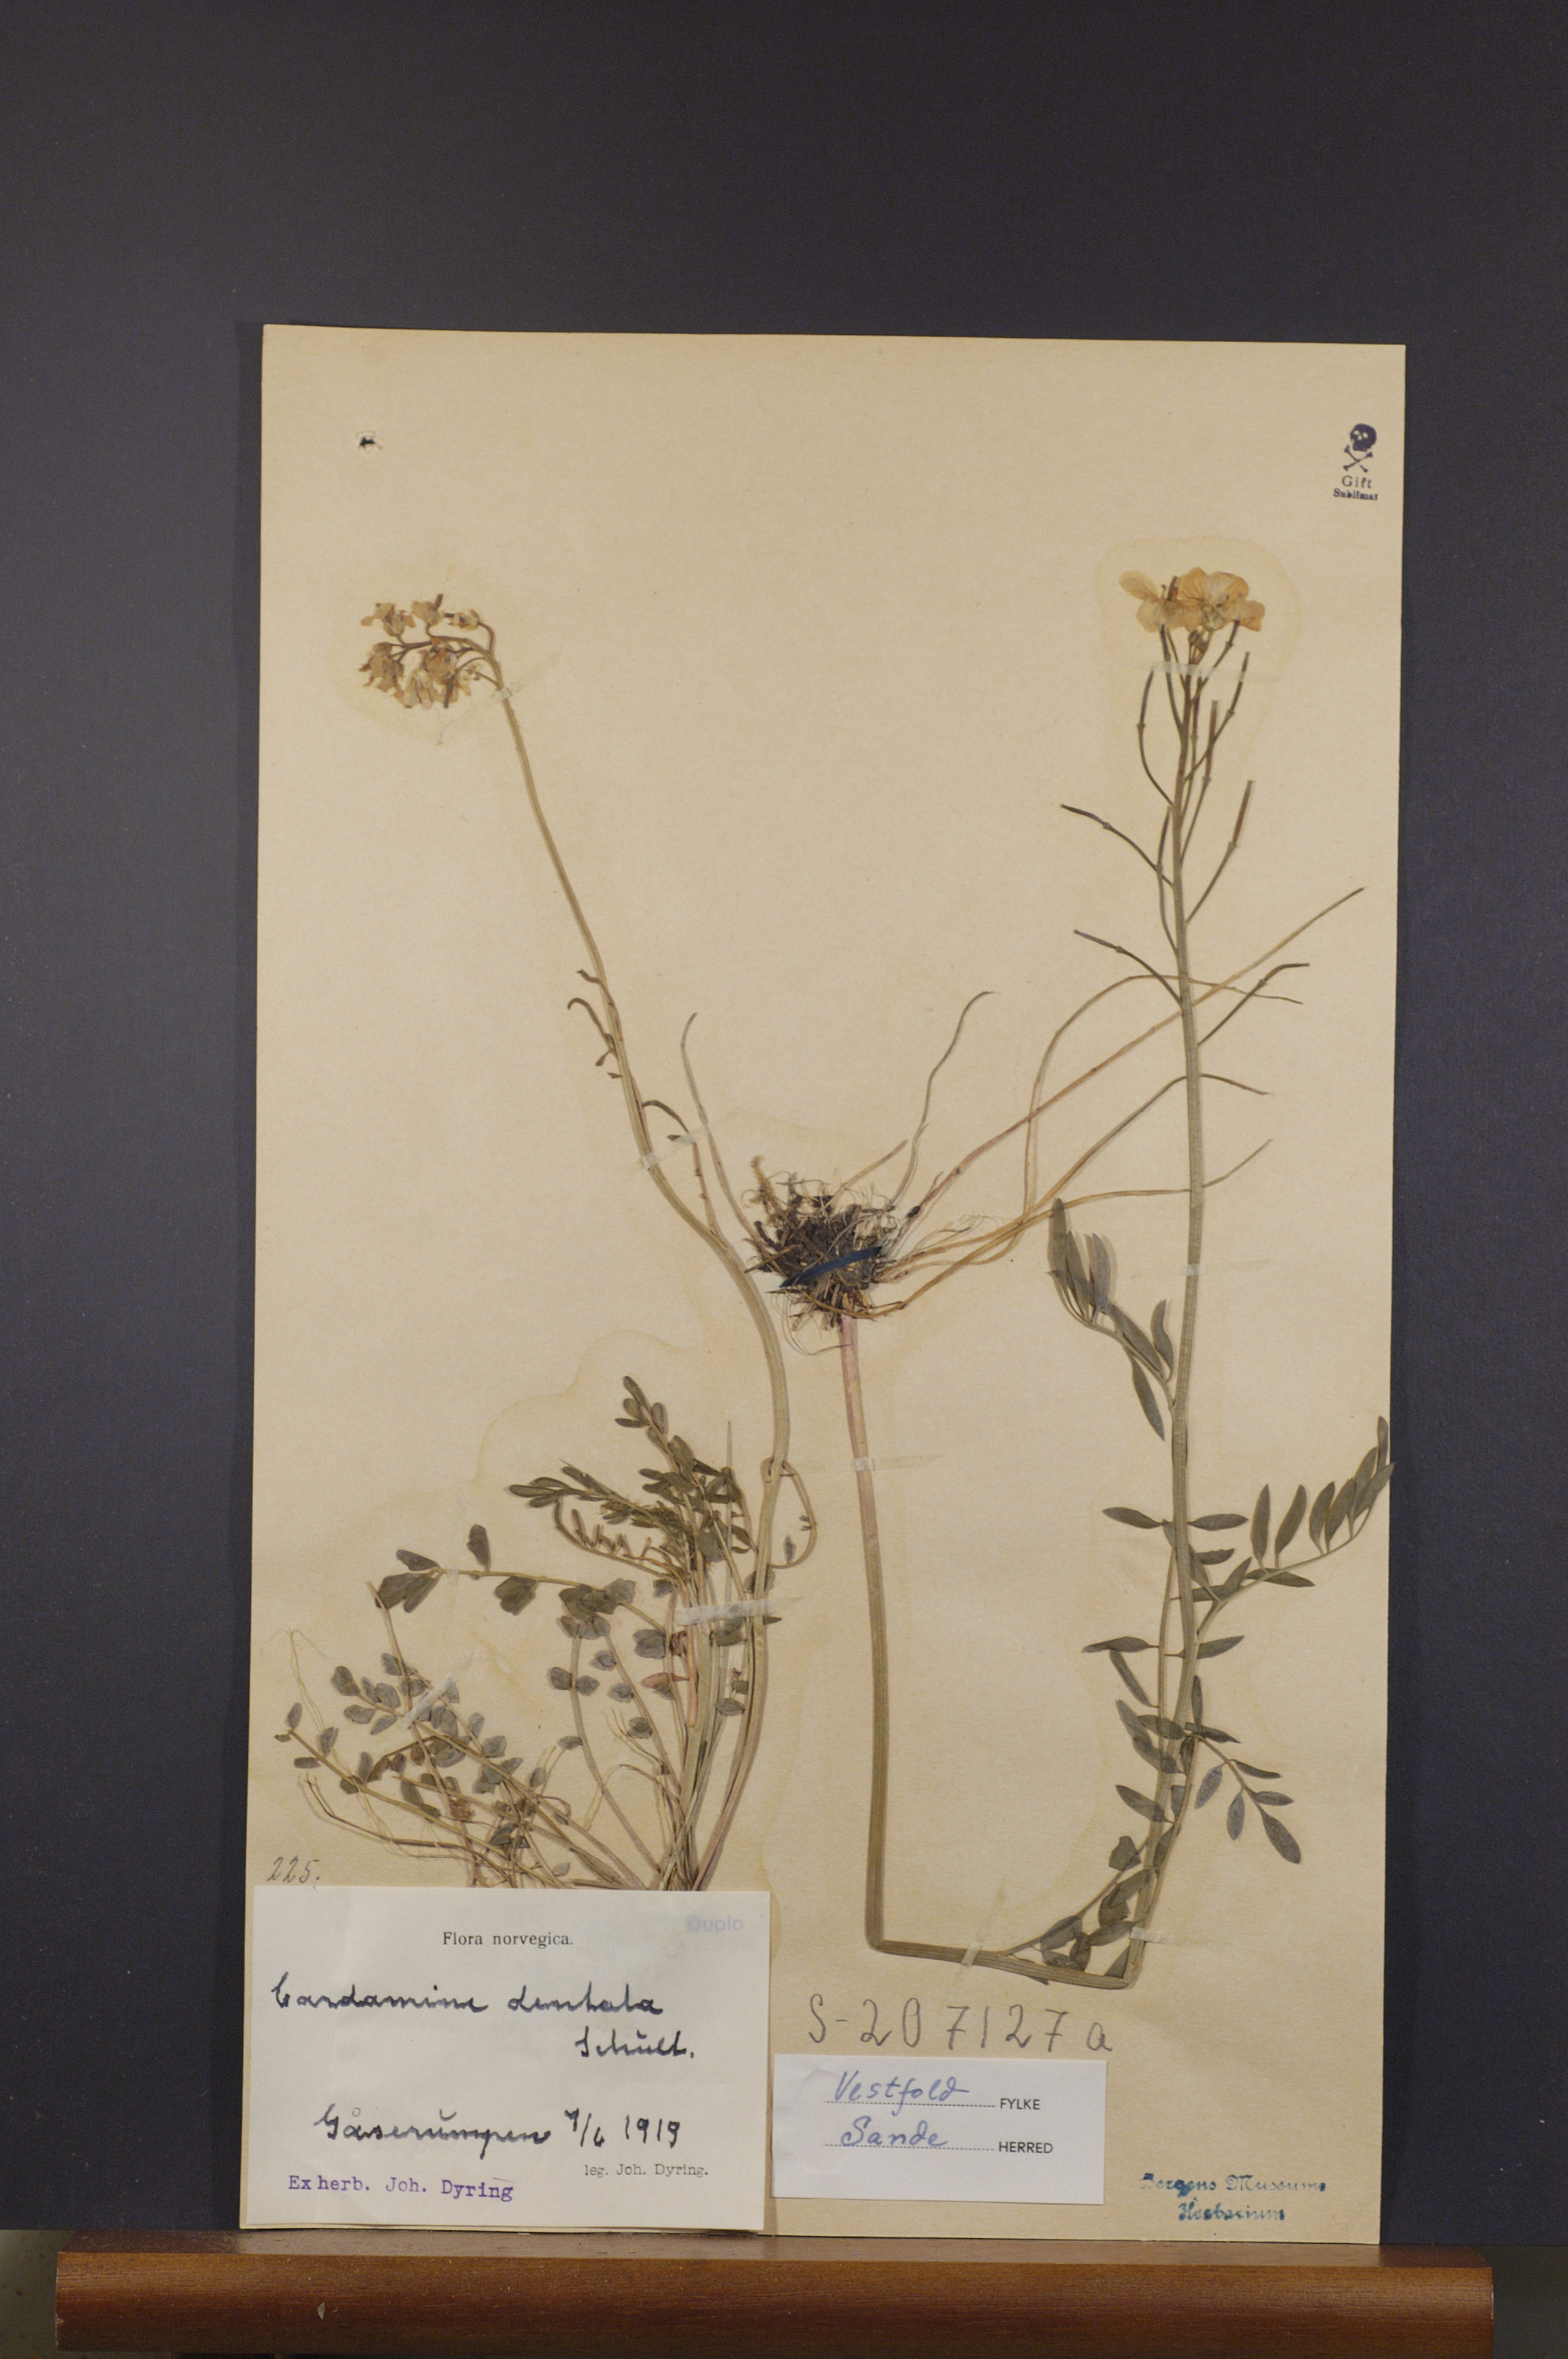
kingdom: Plantae
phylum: Tracheophyta
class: Magnoliopsida
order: Brassicales
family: Brassicaceae
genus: Cardamine
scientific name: Cardamine dentata
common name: Toothed bittercress
